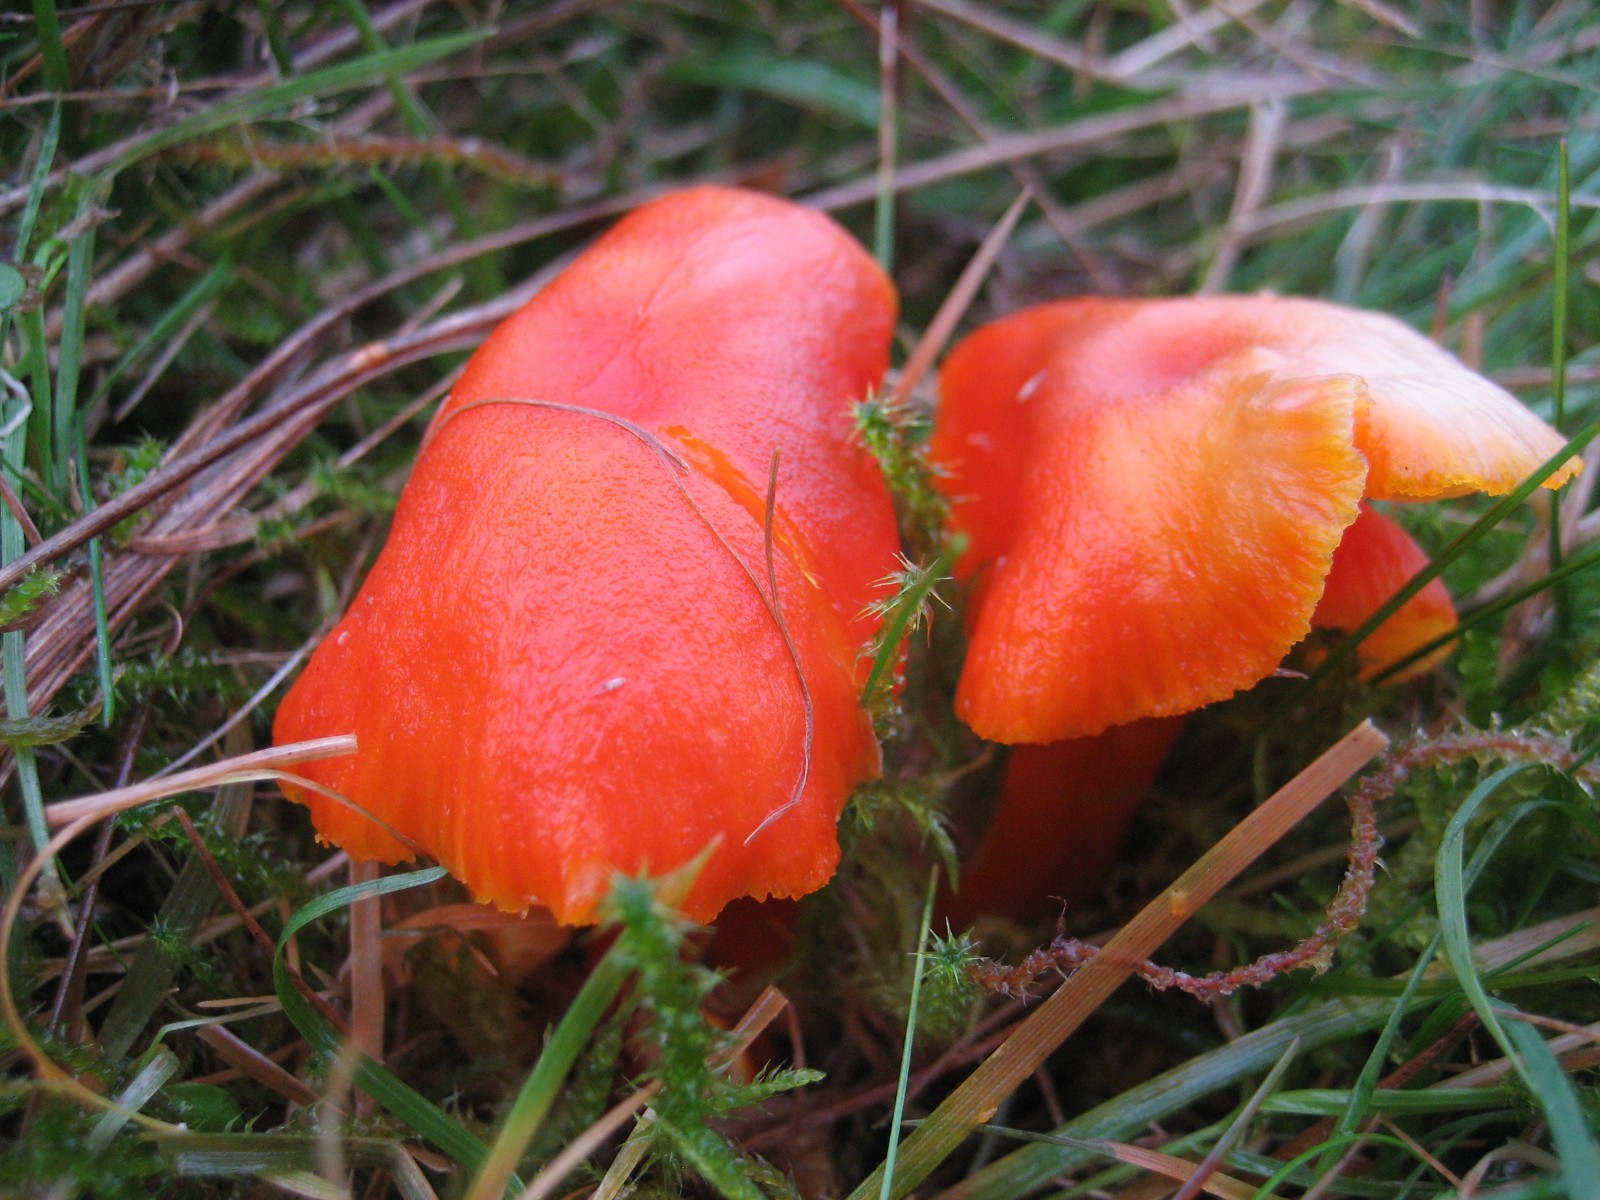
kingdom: Fungi
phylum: Basidiomycota
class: Agaricomycetes
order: Agaricales
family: Hygrophoraceae
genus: Hygrocybe
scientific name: Hygrocybe miniata
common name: mønje-vokshat
